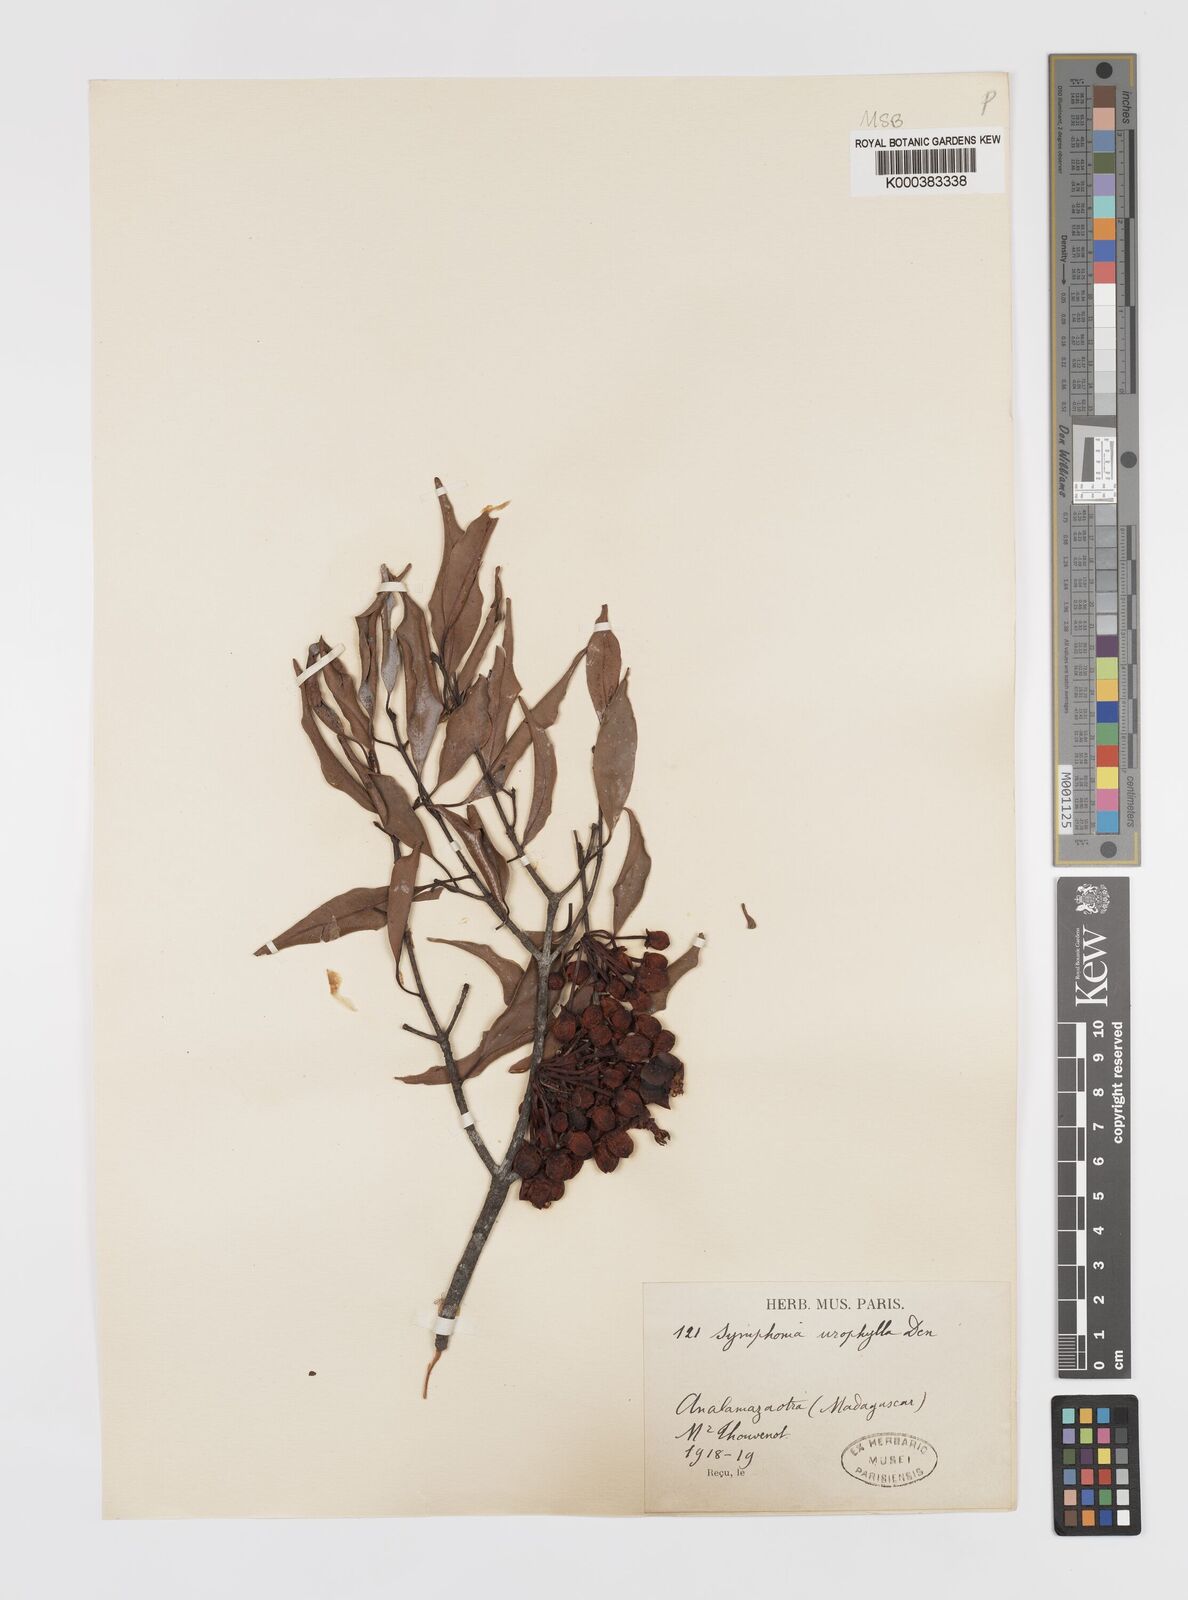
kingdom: Plantae
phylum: Tracheophyta
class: Magnoliopsida
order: Malpighiales
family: Clusiaceae
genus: Symphonia
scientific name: Symphonia
